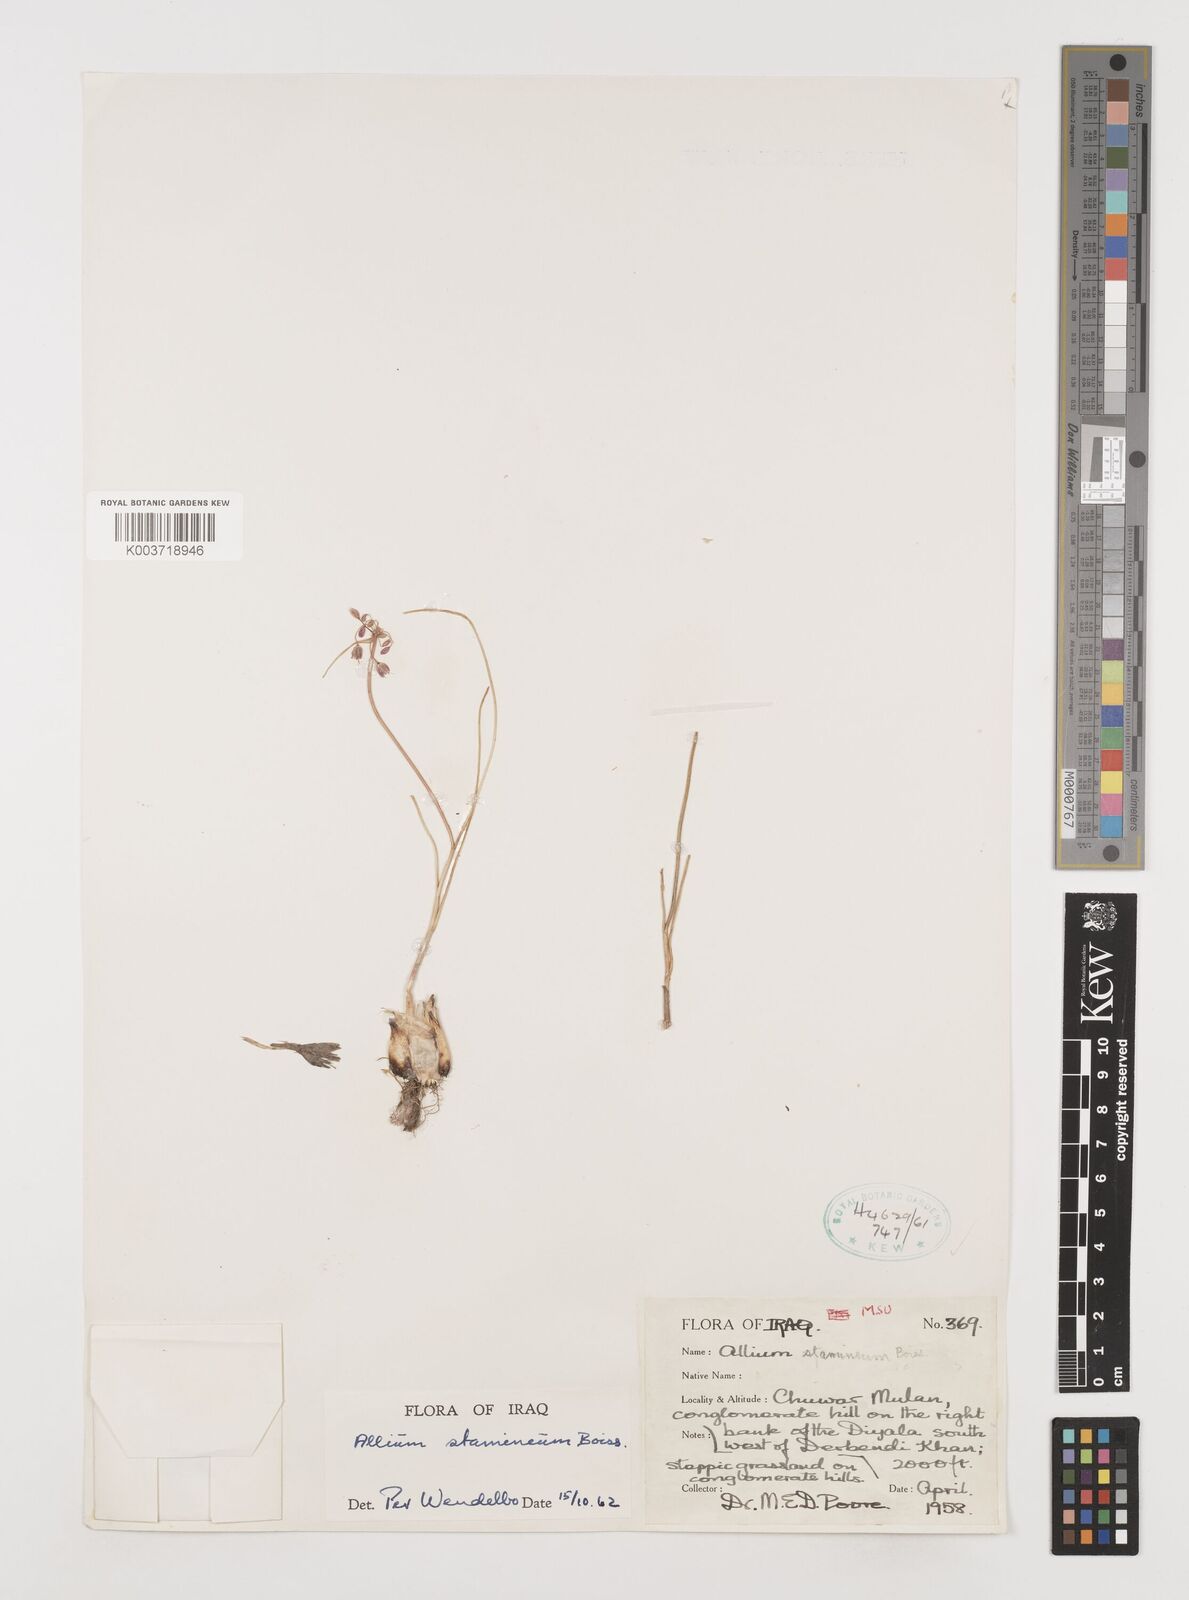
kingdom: Plantae
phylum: Tracheophyta
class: Liliopsida
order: Asparagales
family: Amaryllidaceae
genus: Allium
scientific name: Allium stamineum
